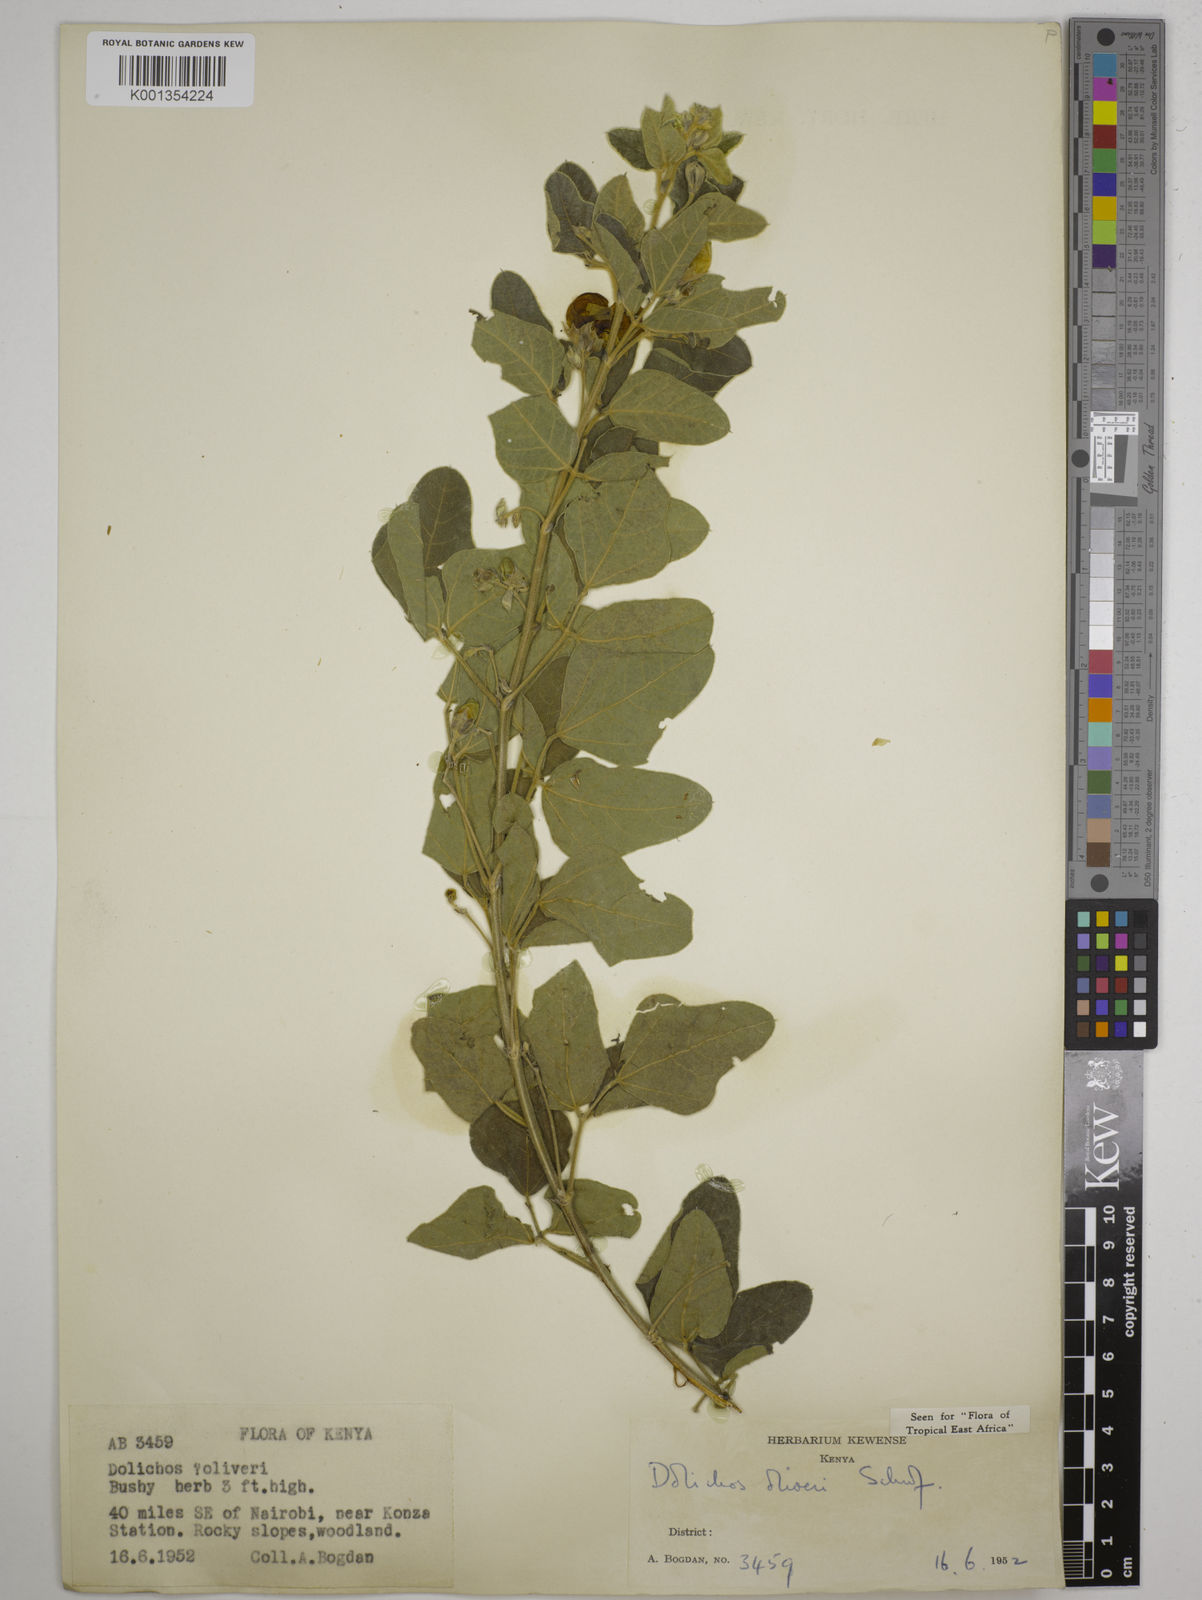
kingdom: Plantae
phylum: Tracheophyta
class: Magnoliopsida
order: Fabales
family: Fabaceae
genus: Dolichos
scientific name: Dolichos oliveri
